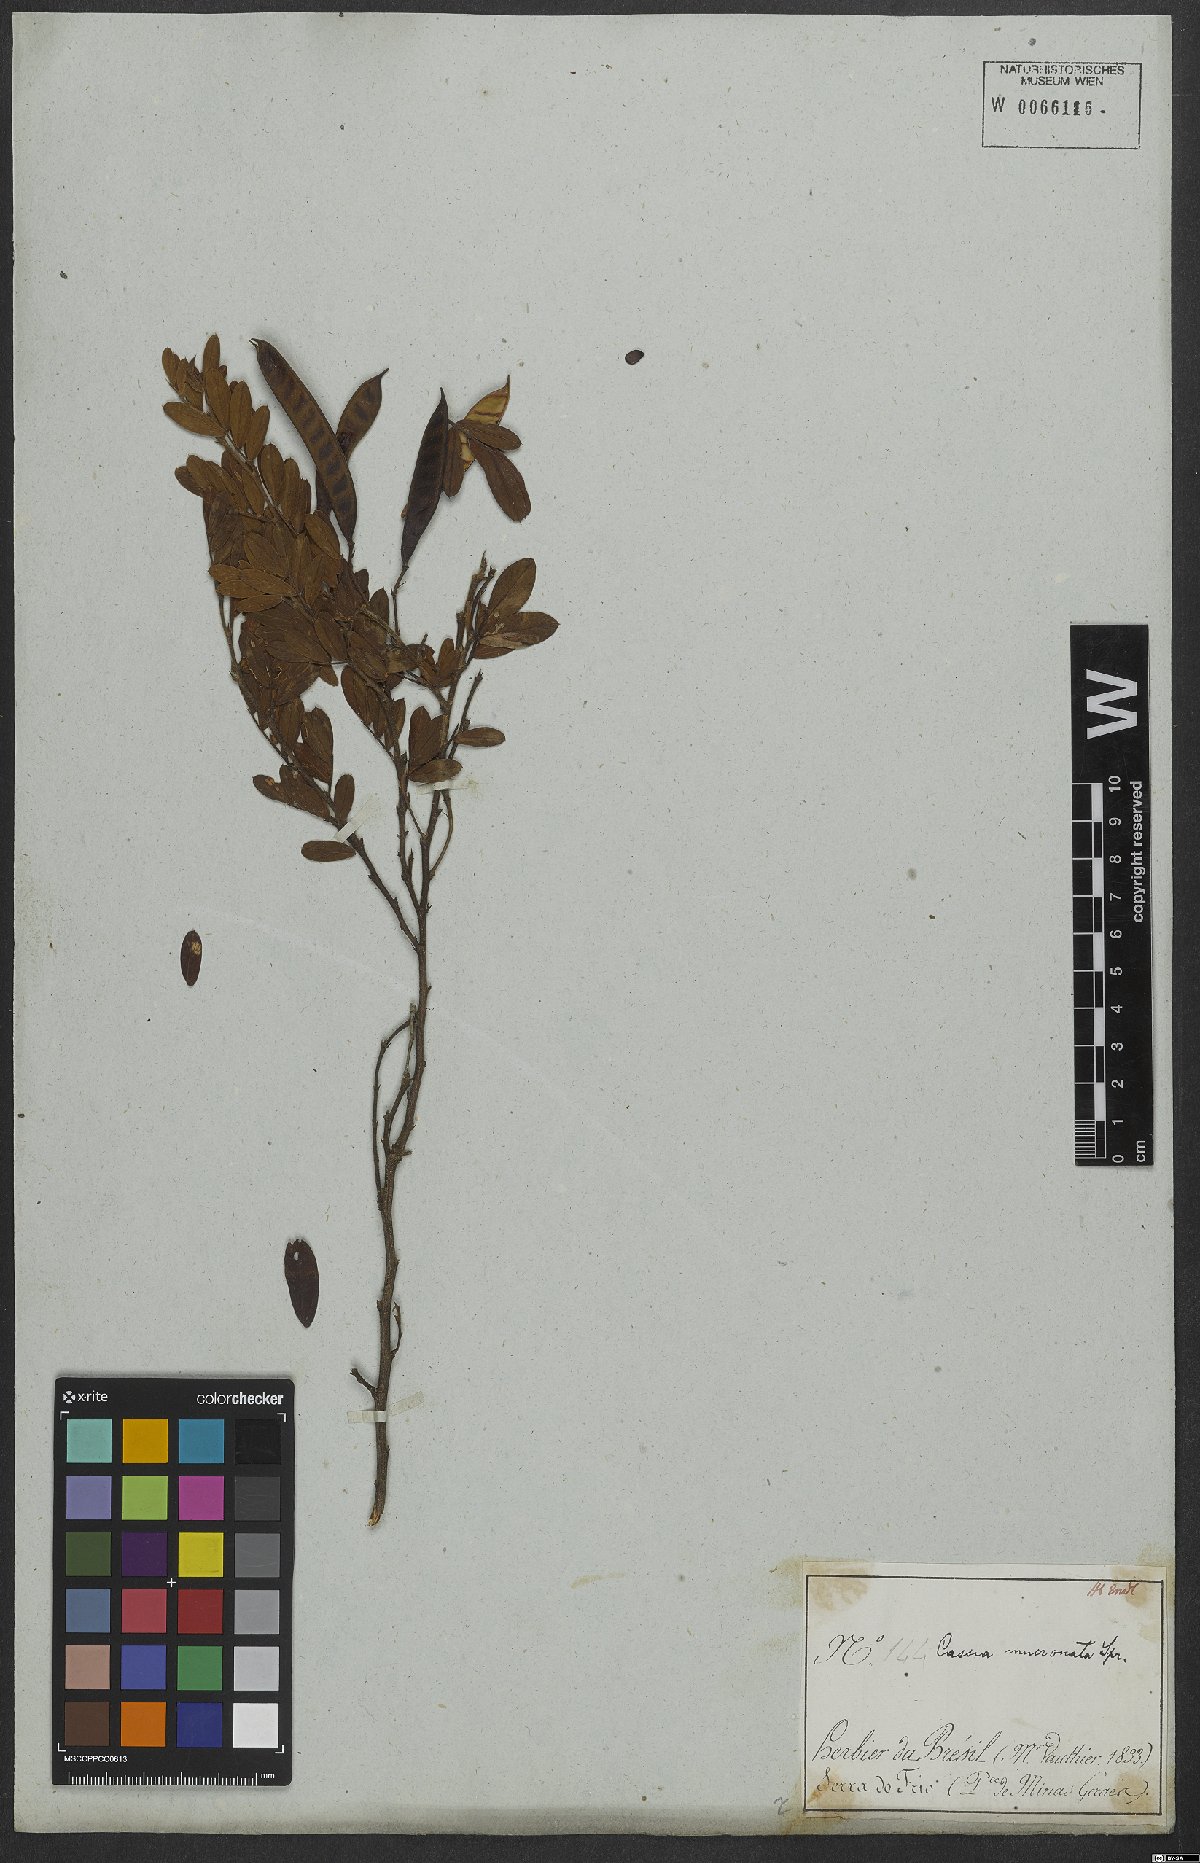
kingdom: Plantae
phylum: Tracheophyta
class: Magnoliopsida
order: Fabales
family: Fabaceae
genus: Chamaecrista
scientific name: Chamaecrista mucronata
